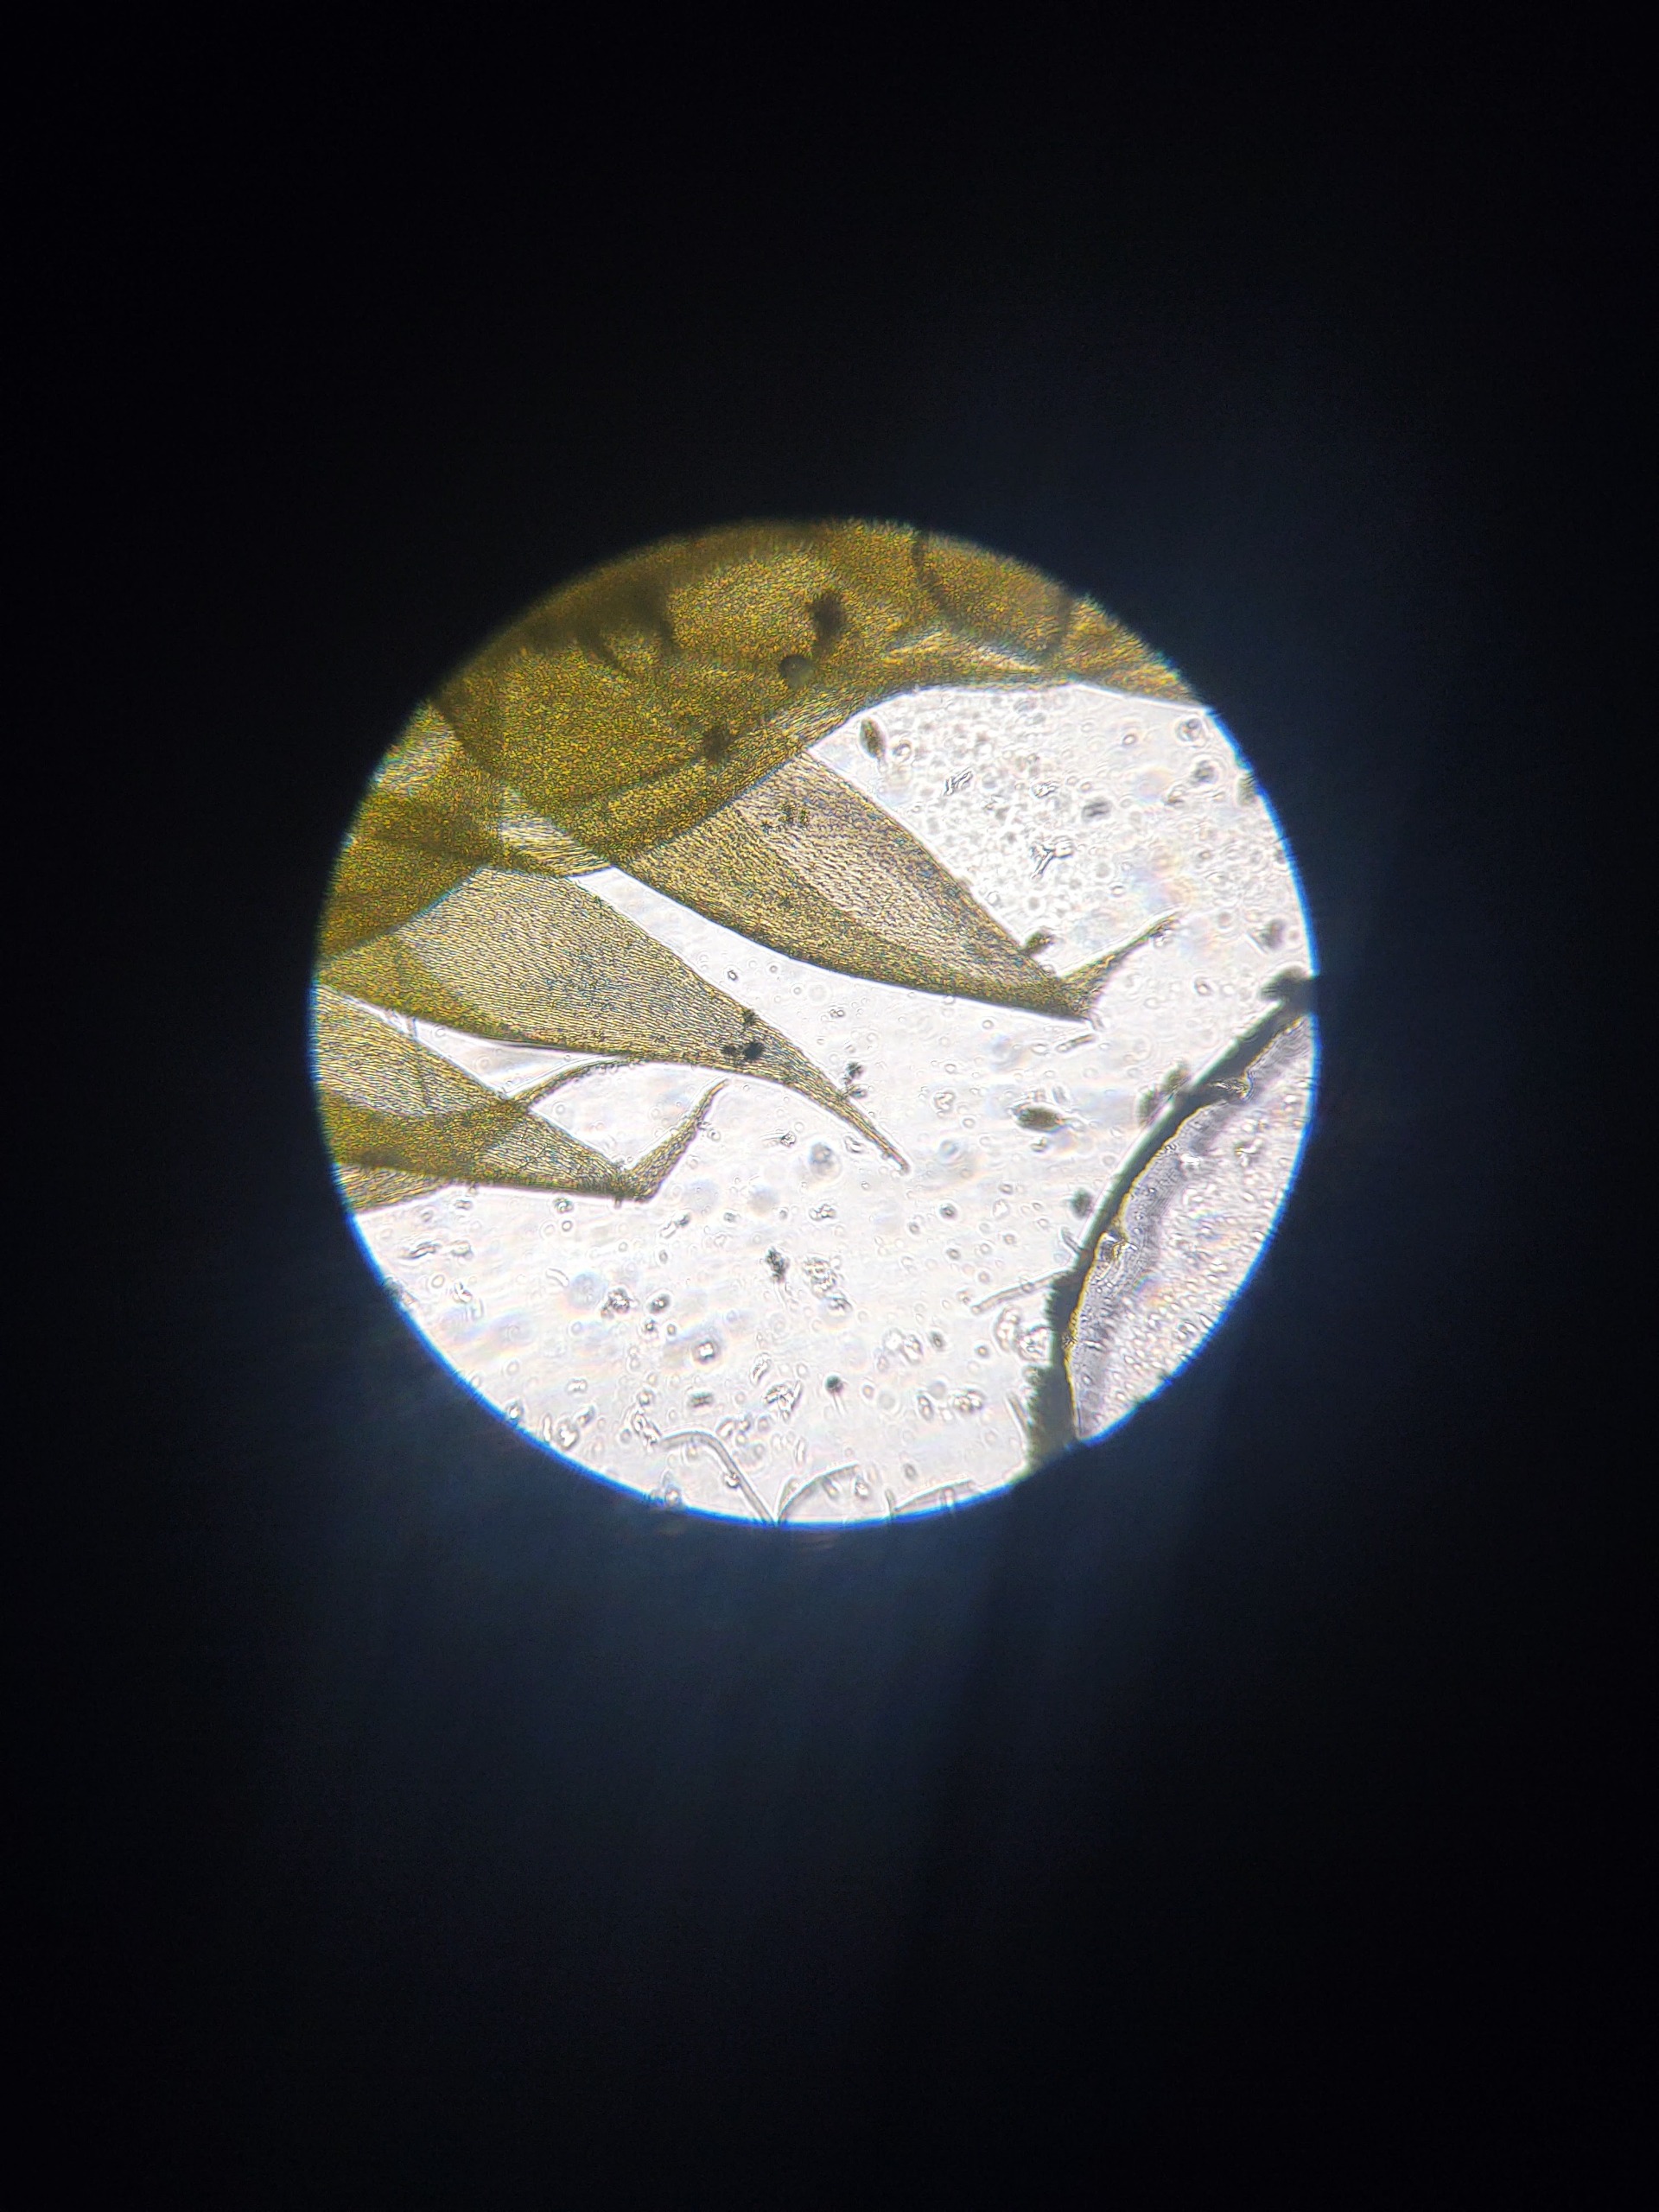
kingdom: Plantae
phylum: Bryophyta
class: Bryopsida
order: Aulacomniales
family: Aulacomniaceae
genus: Aulacomnium
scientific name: Aulacomnium androgynum
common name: Kugle-filtmos
